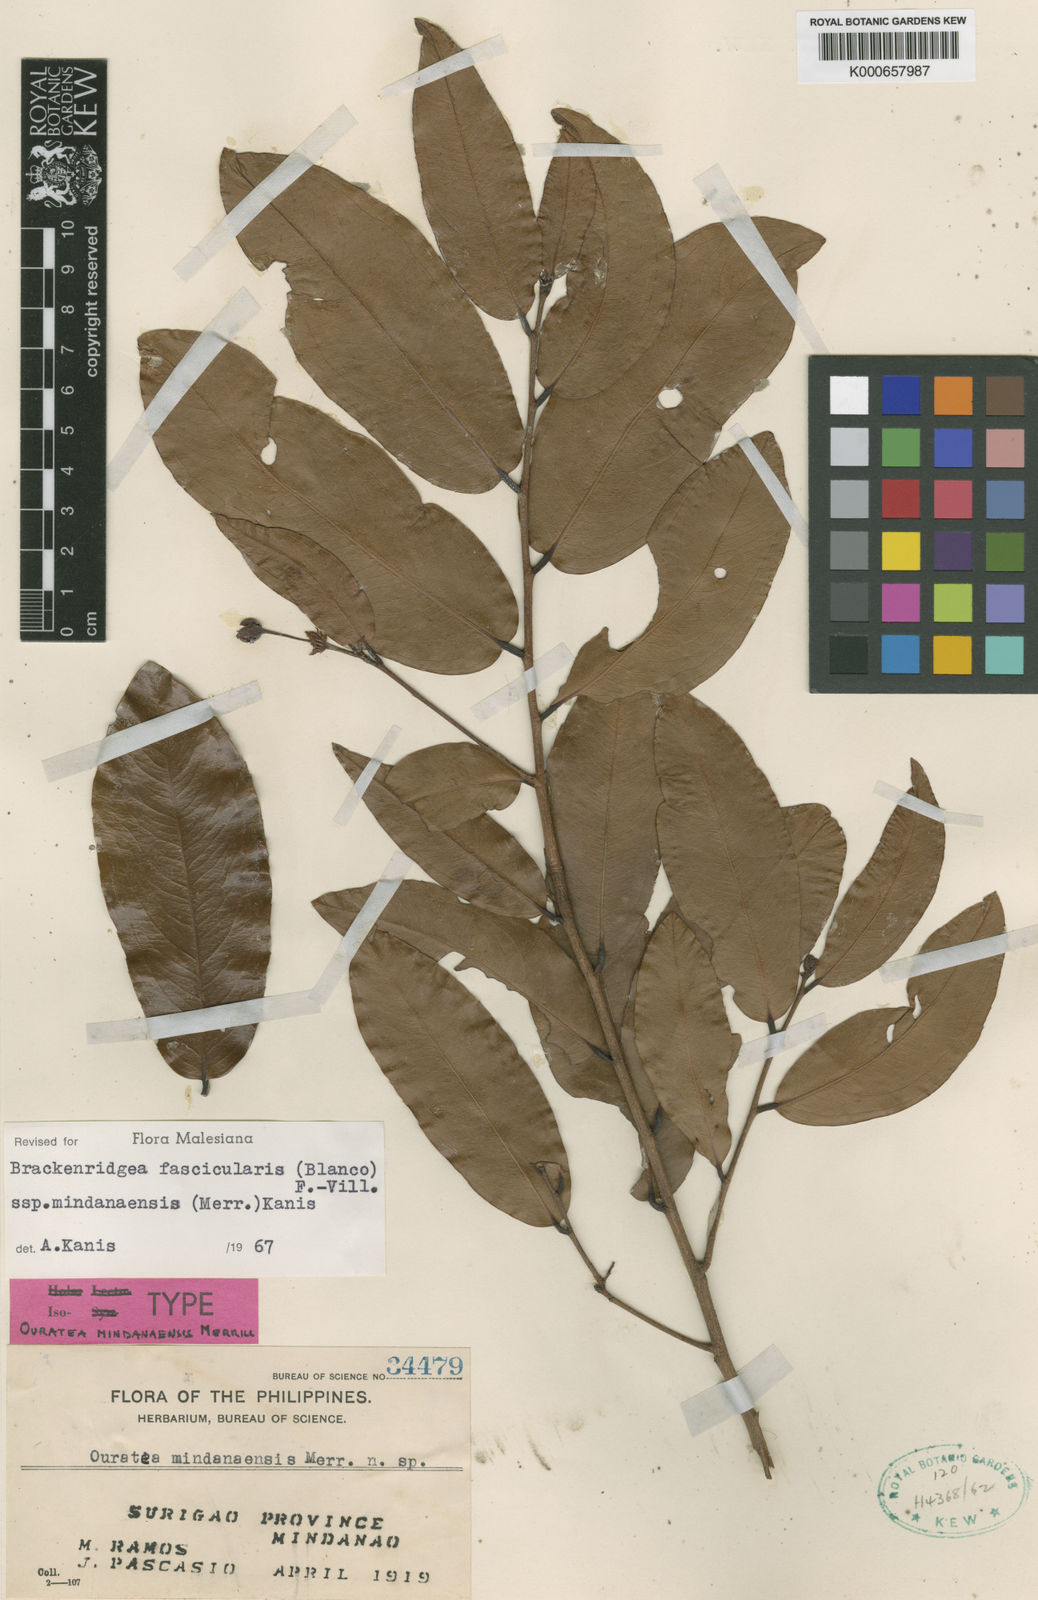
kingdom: Plantae
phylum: Tracheophyta
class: Magnoliopsida
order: Malpighiales
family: Ochnaceae
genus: Brackenridgea
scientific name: Brackenridgea fascicularis
